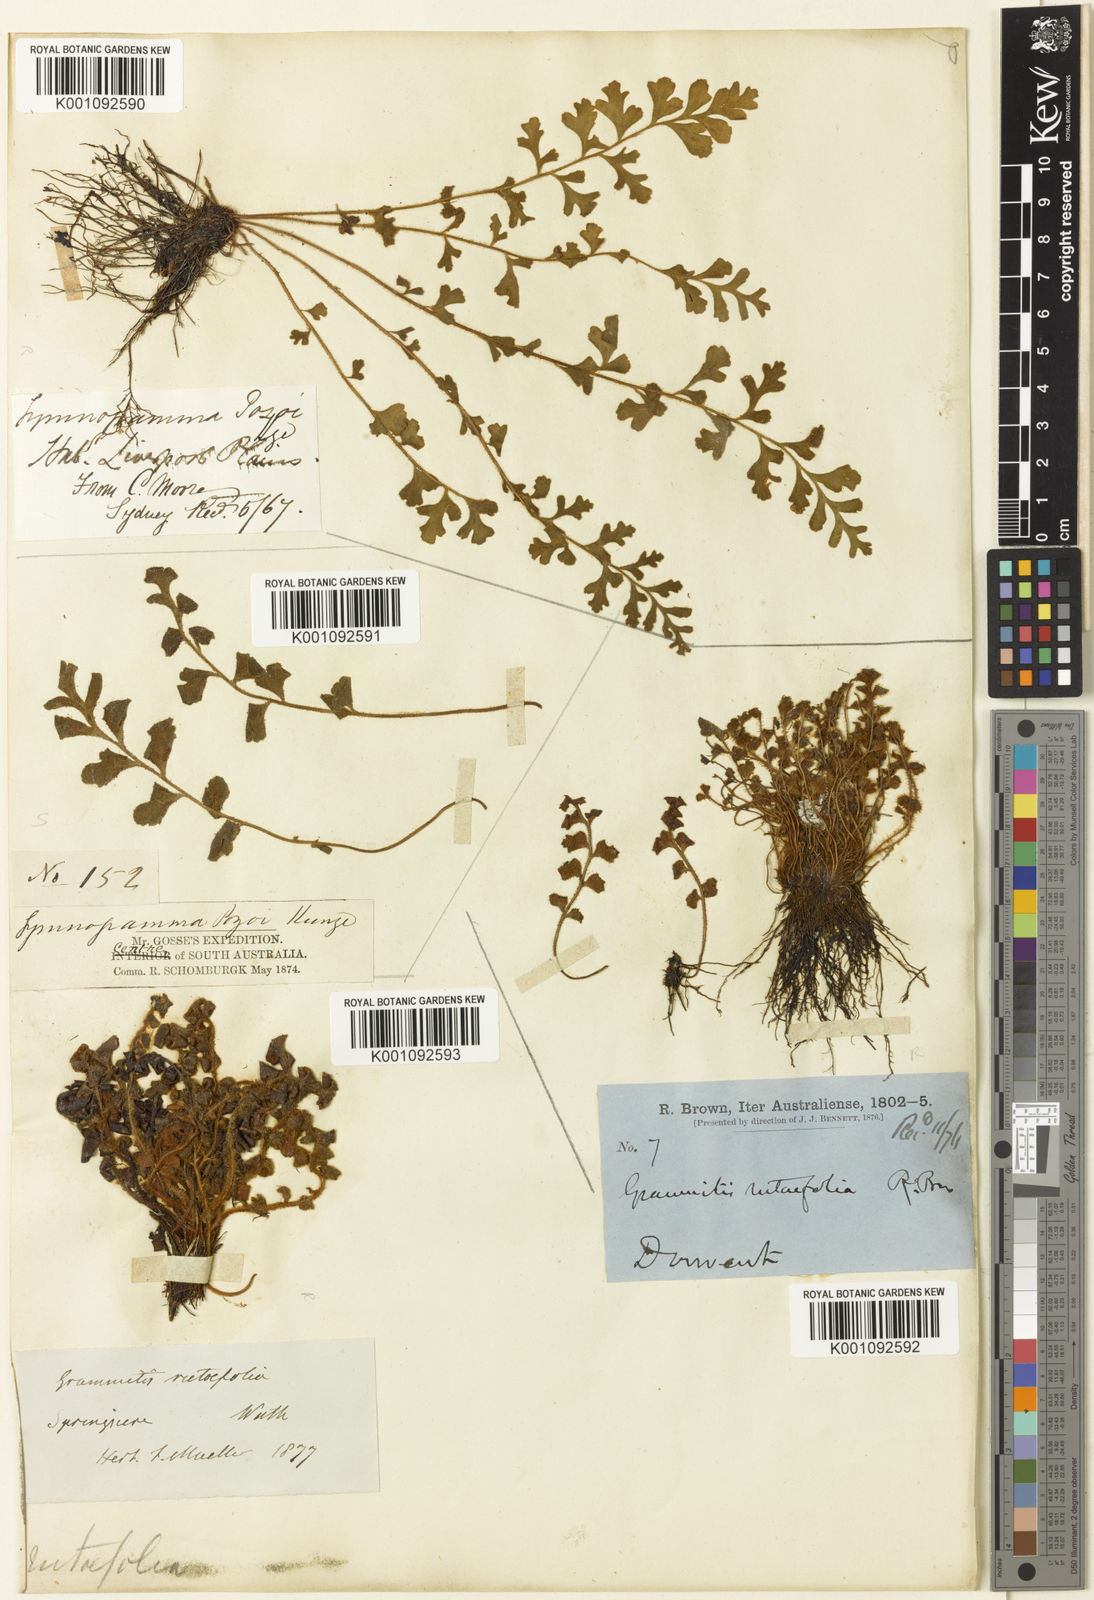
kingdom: Plantae
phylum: Tracheophyta
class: Polypodiopsida
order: Polypodiales
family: Aspleniaceae
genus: Asplenium
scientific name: Asplenium
